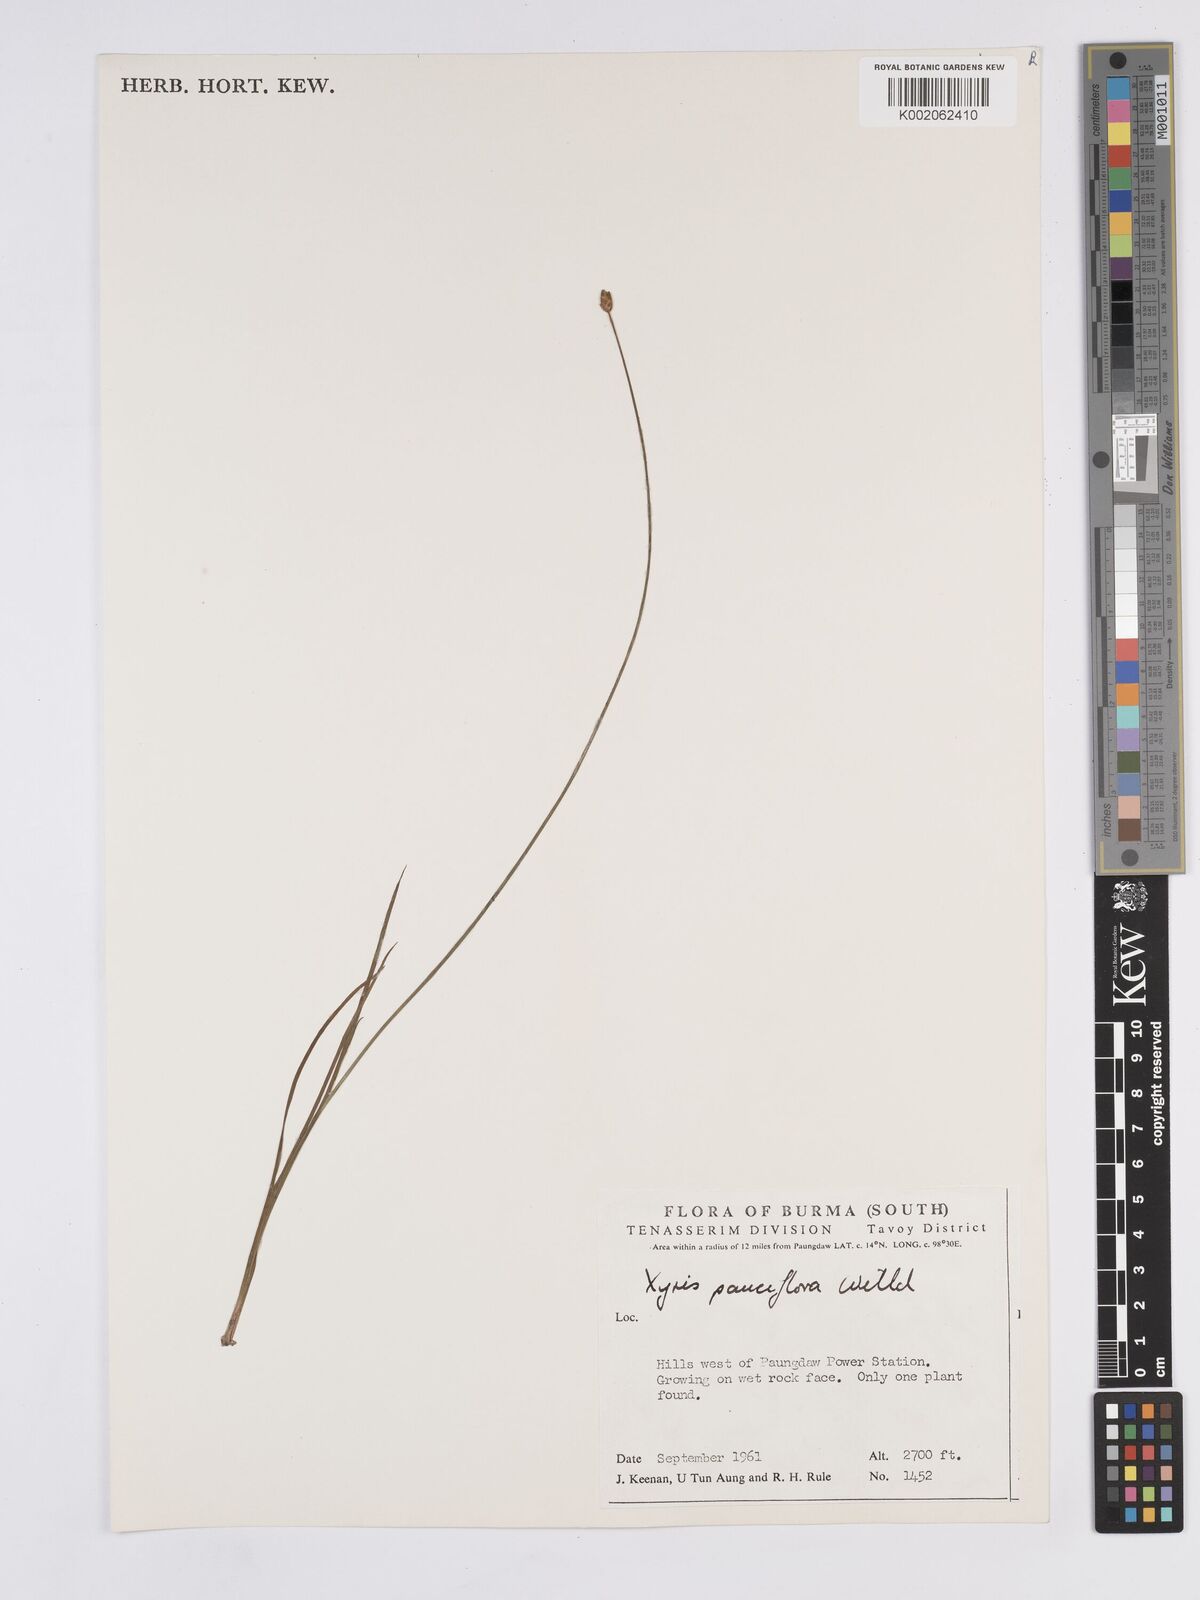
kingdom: Plantae
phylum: Tracheophyta
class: Liliopsida
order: Poales
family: Xyridaceae
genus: Xyris
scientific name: Xyris pauciflora
